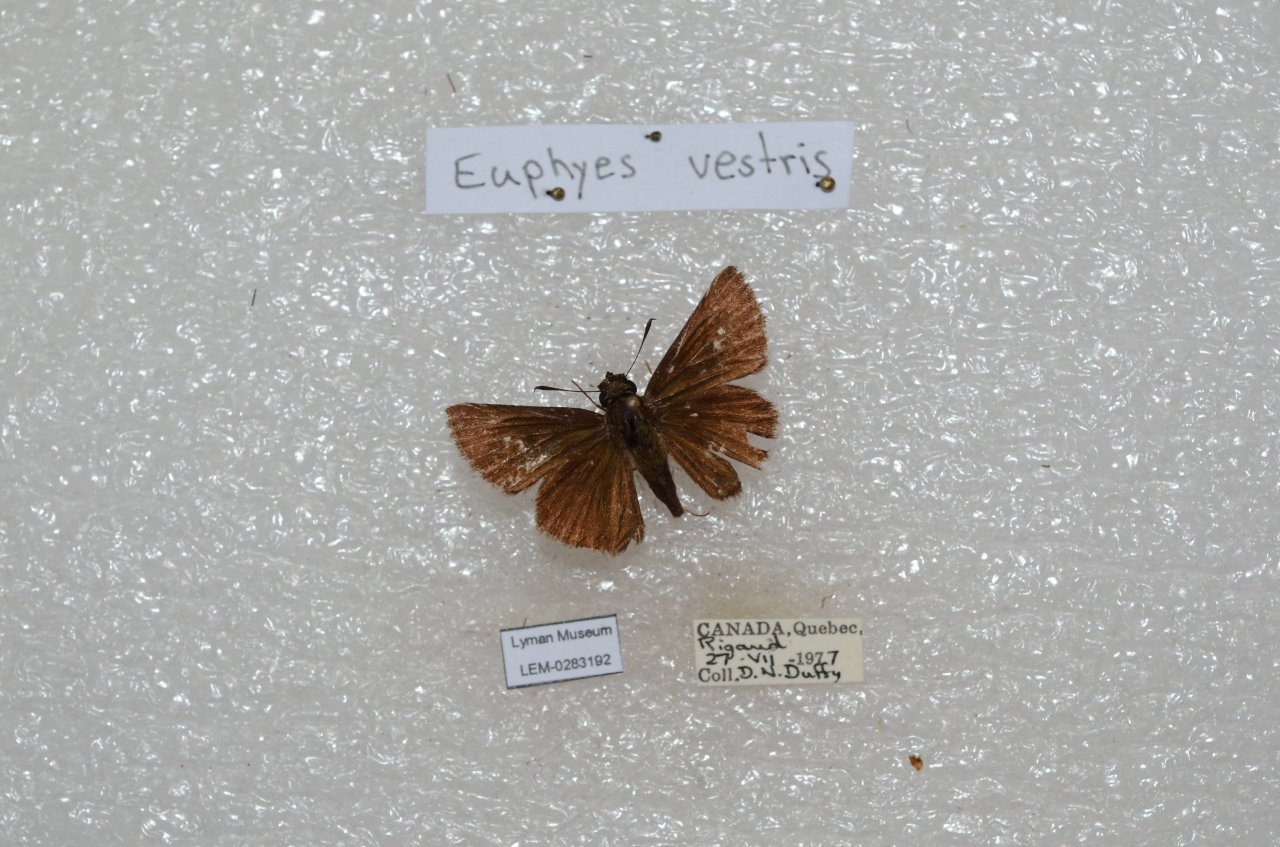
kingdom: Animalia
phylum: Arthropoda
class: Insecta
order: Lepidoptera
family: Hesperiidae
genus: Euphyes
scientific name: Euphyes vestris
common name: Dun Skipper
